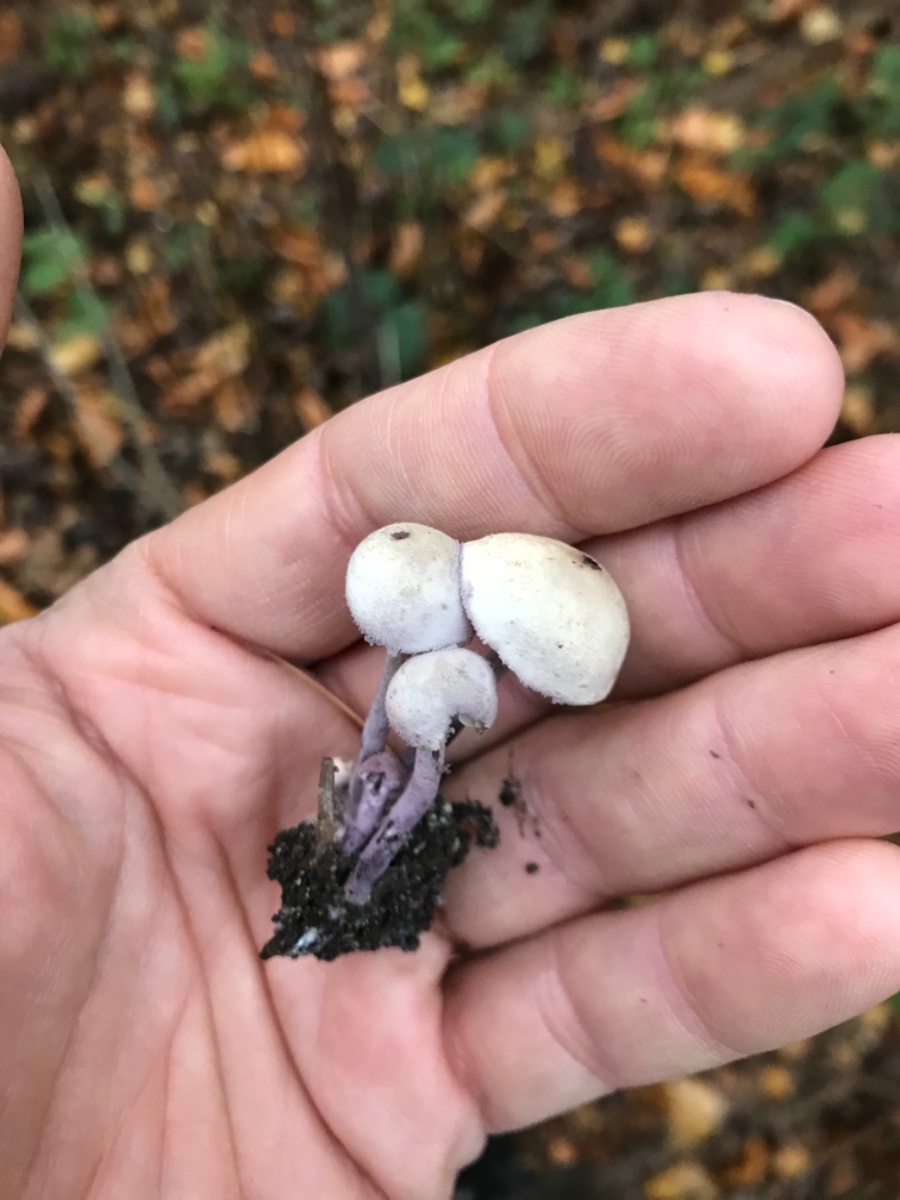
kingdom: Fungi
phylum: Basidiomycota
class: Agaricomycetes
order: Agaricales
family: Agaricaceae
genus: Cystolepiota
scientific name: Cystolepiota bucknallii
